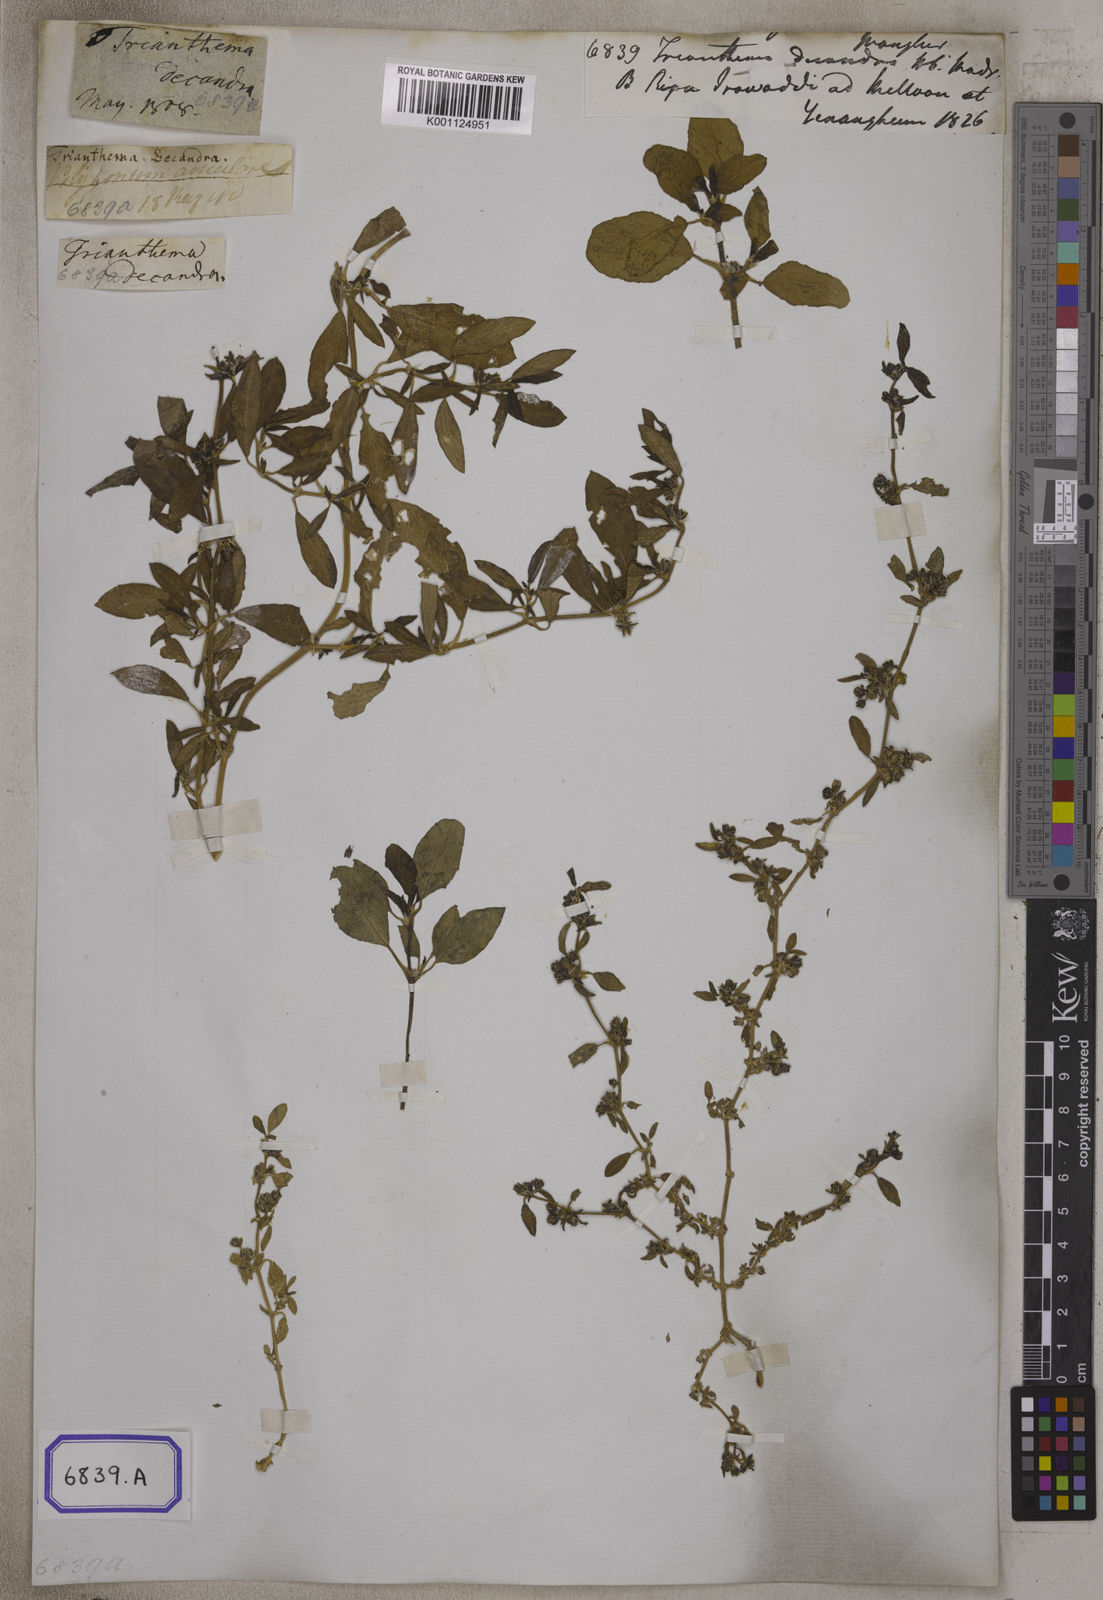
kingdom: Plantae
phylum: Tracheophyta
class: Magnoliopsida
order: Caryophyllales
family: Aizoaceae
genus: Zaleya
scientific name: Zaleya decandra
